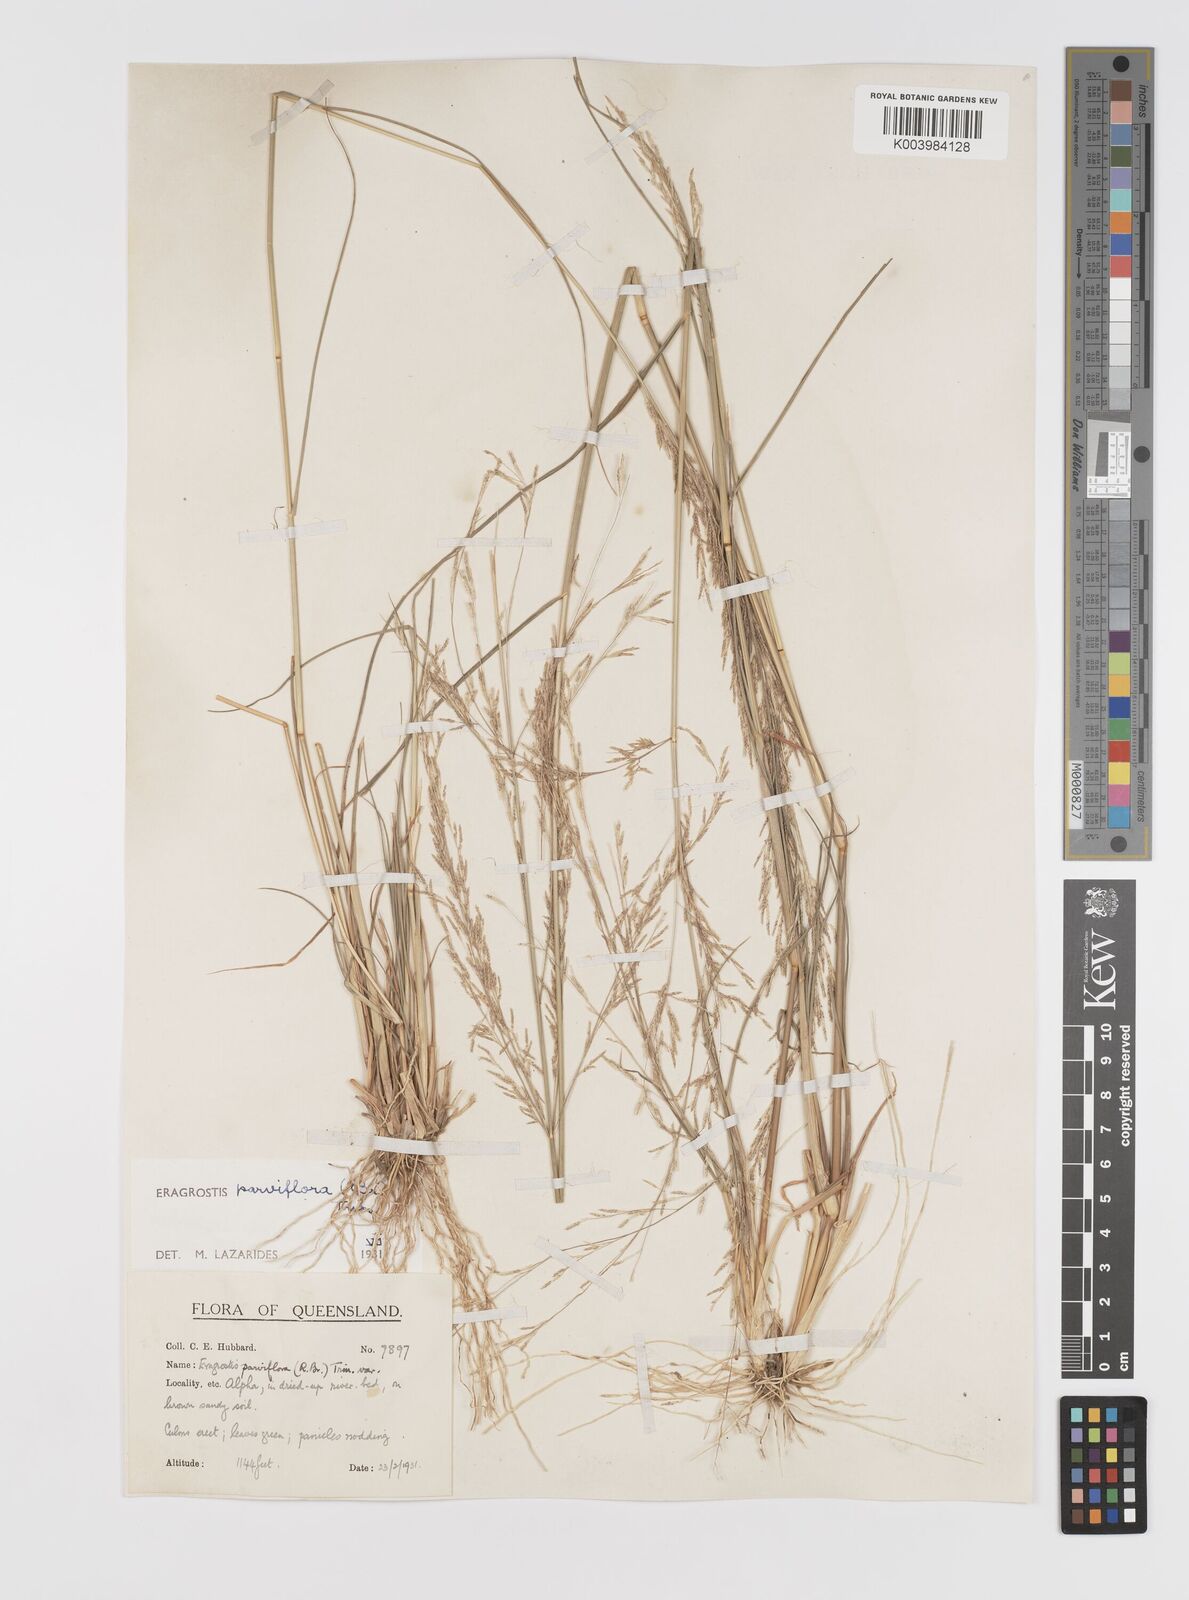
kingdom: Plantae
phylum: Tracheophyta
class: Liliopsida
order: Poales
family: Poaceae
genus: Eragrostis
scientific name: Eragrostis parviflora
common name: Weeping love-grass
